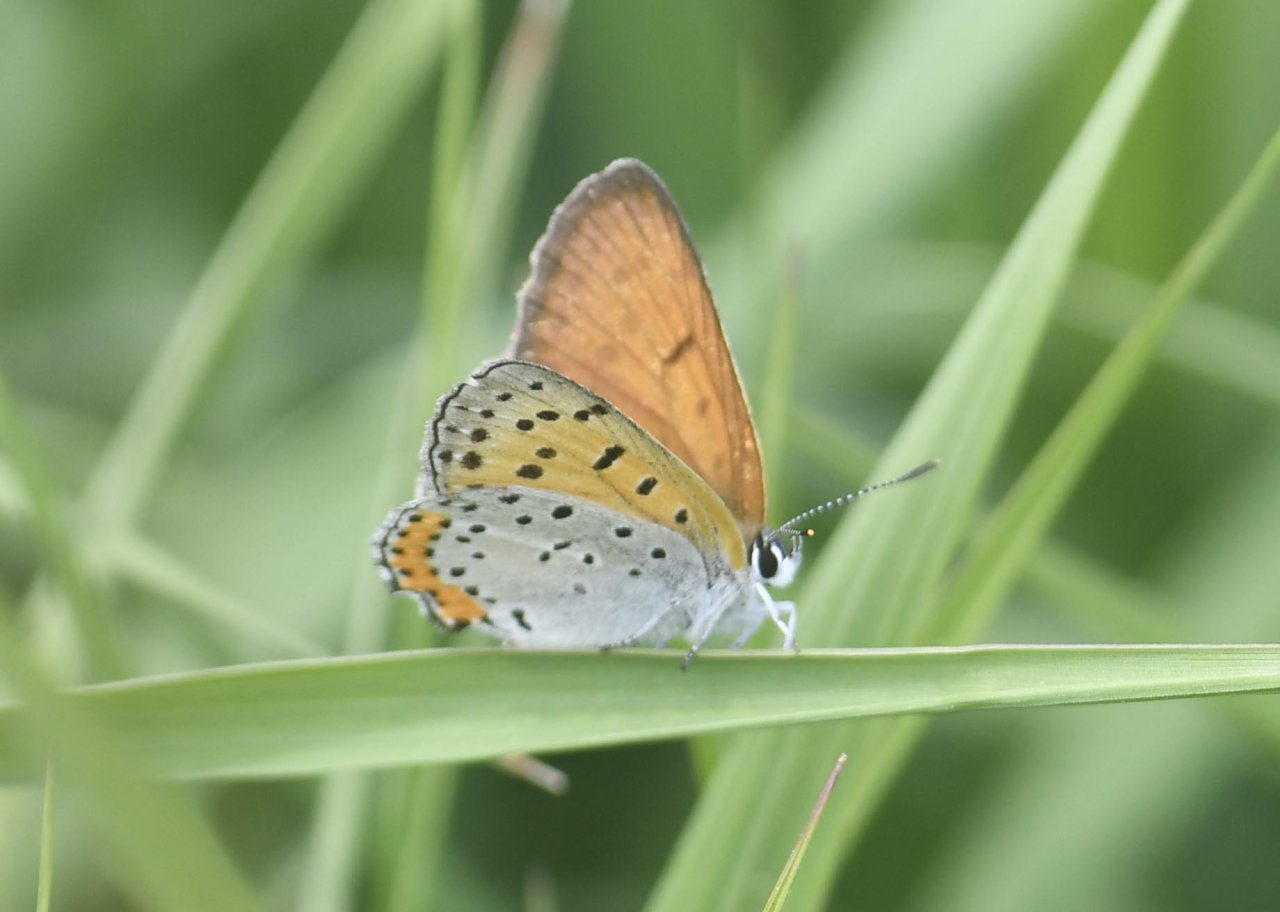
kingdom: Animalia
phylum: Arthropoda
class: Insecta
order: Lepidoptera
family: Sesiidae
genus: Sesia
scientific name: Sesia Lycaena hyllus
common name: Bronze Copper
